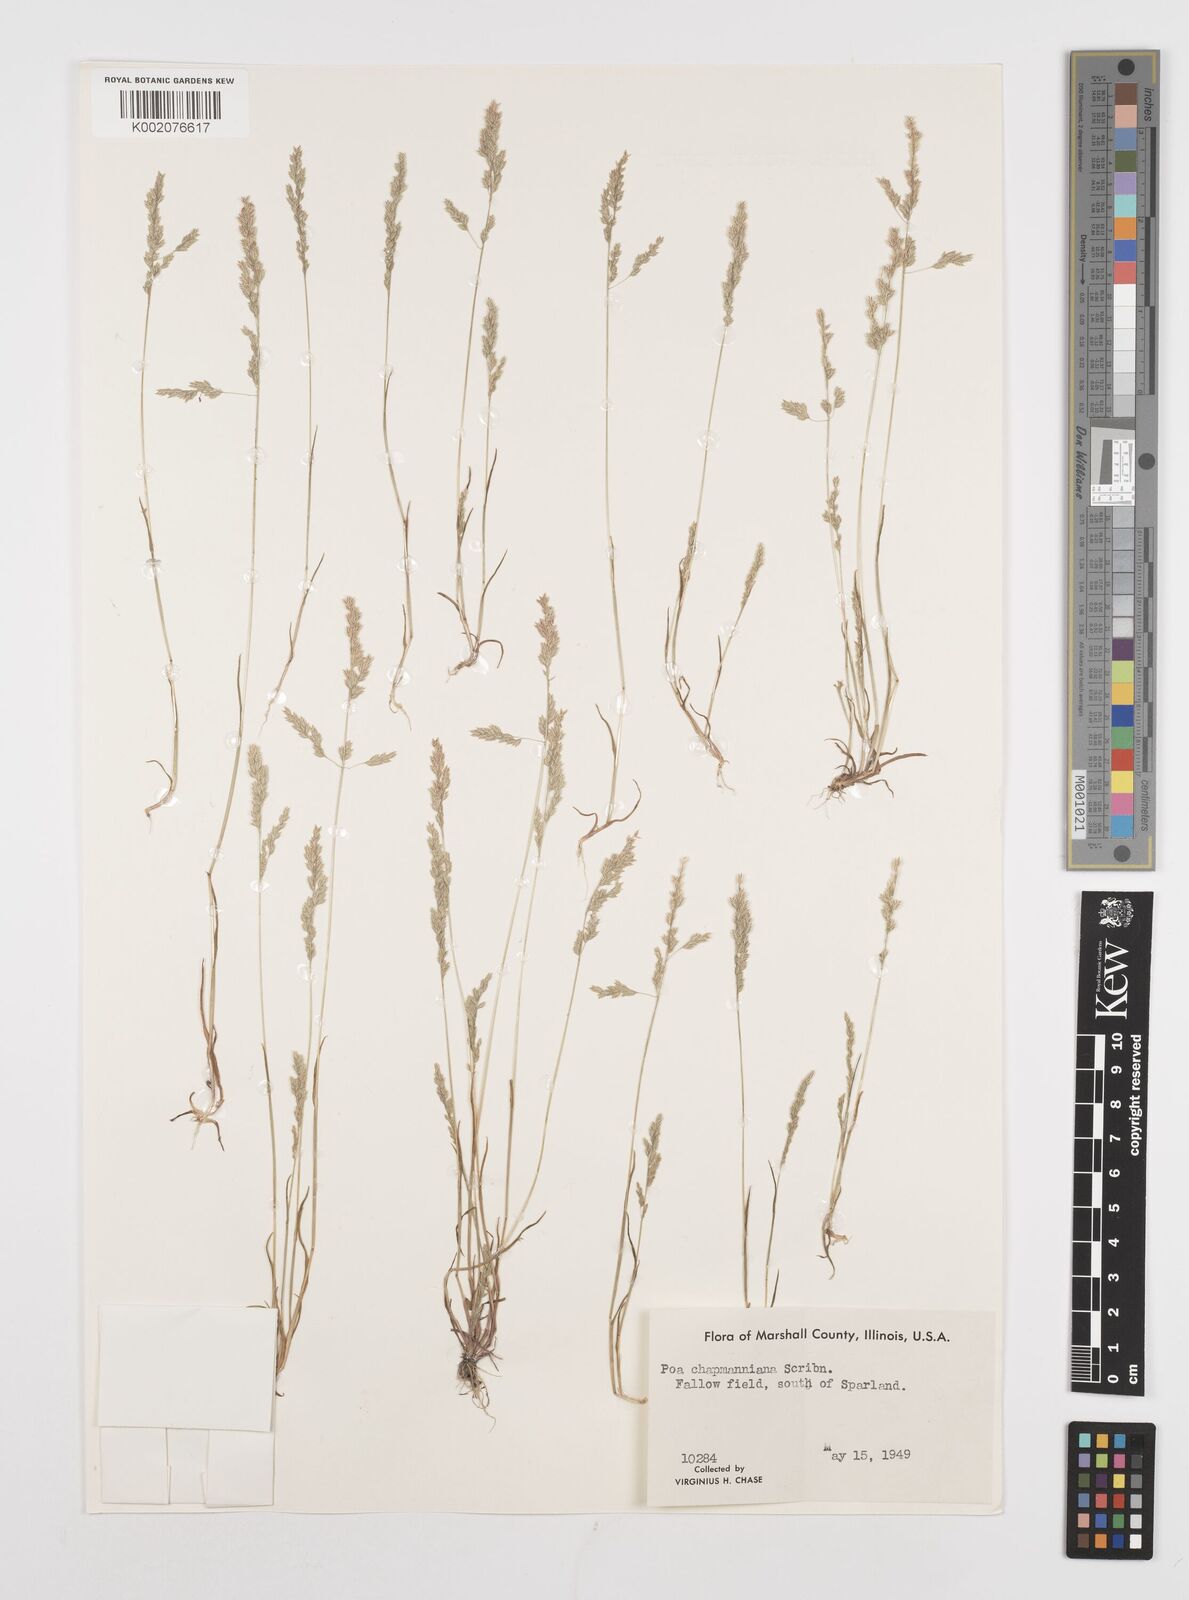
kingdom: Plantae
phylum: Tracheophyta
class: Liliopsida
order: Poales
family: Poaceae
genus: Poa
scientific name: Poa chapmaniana
